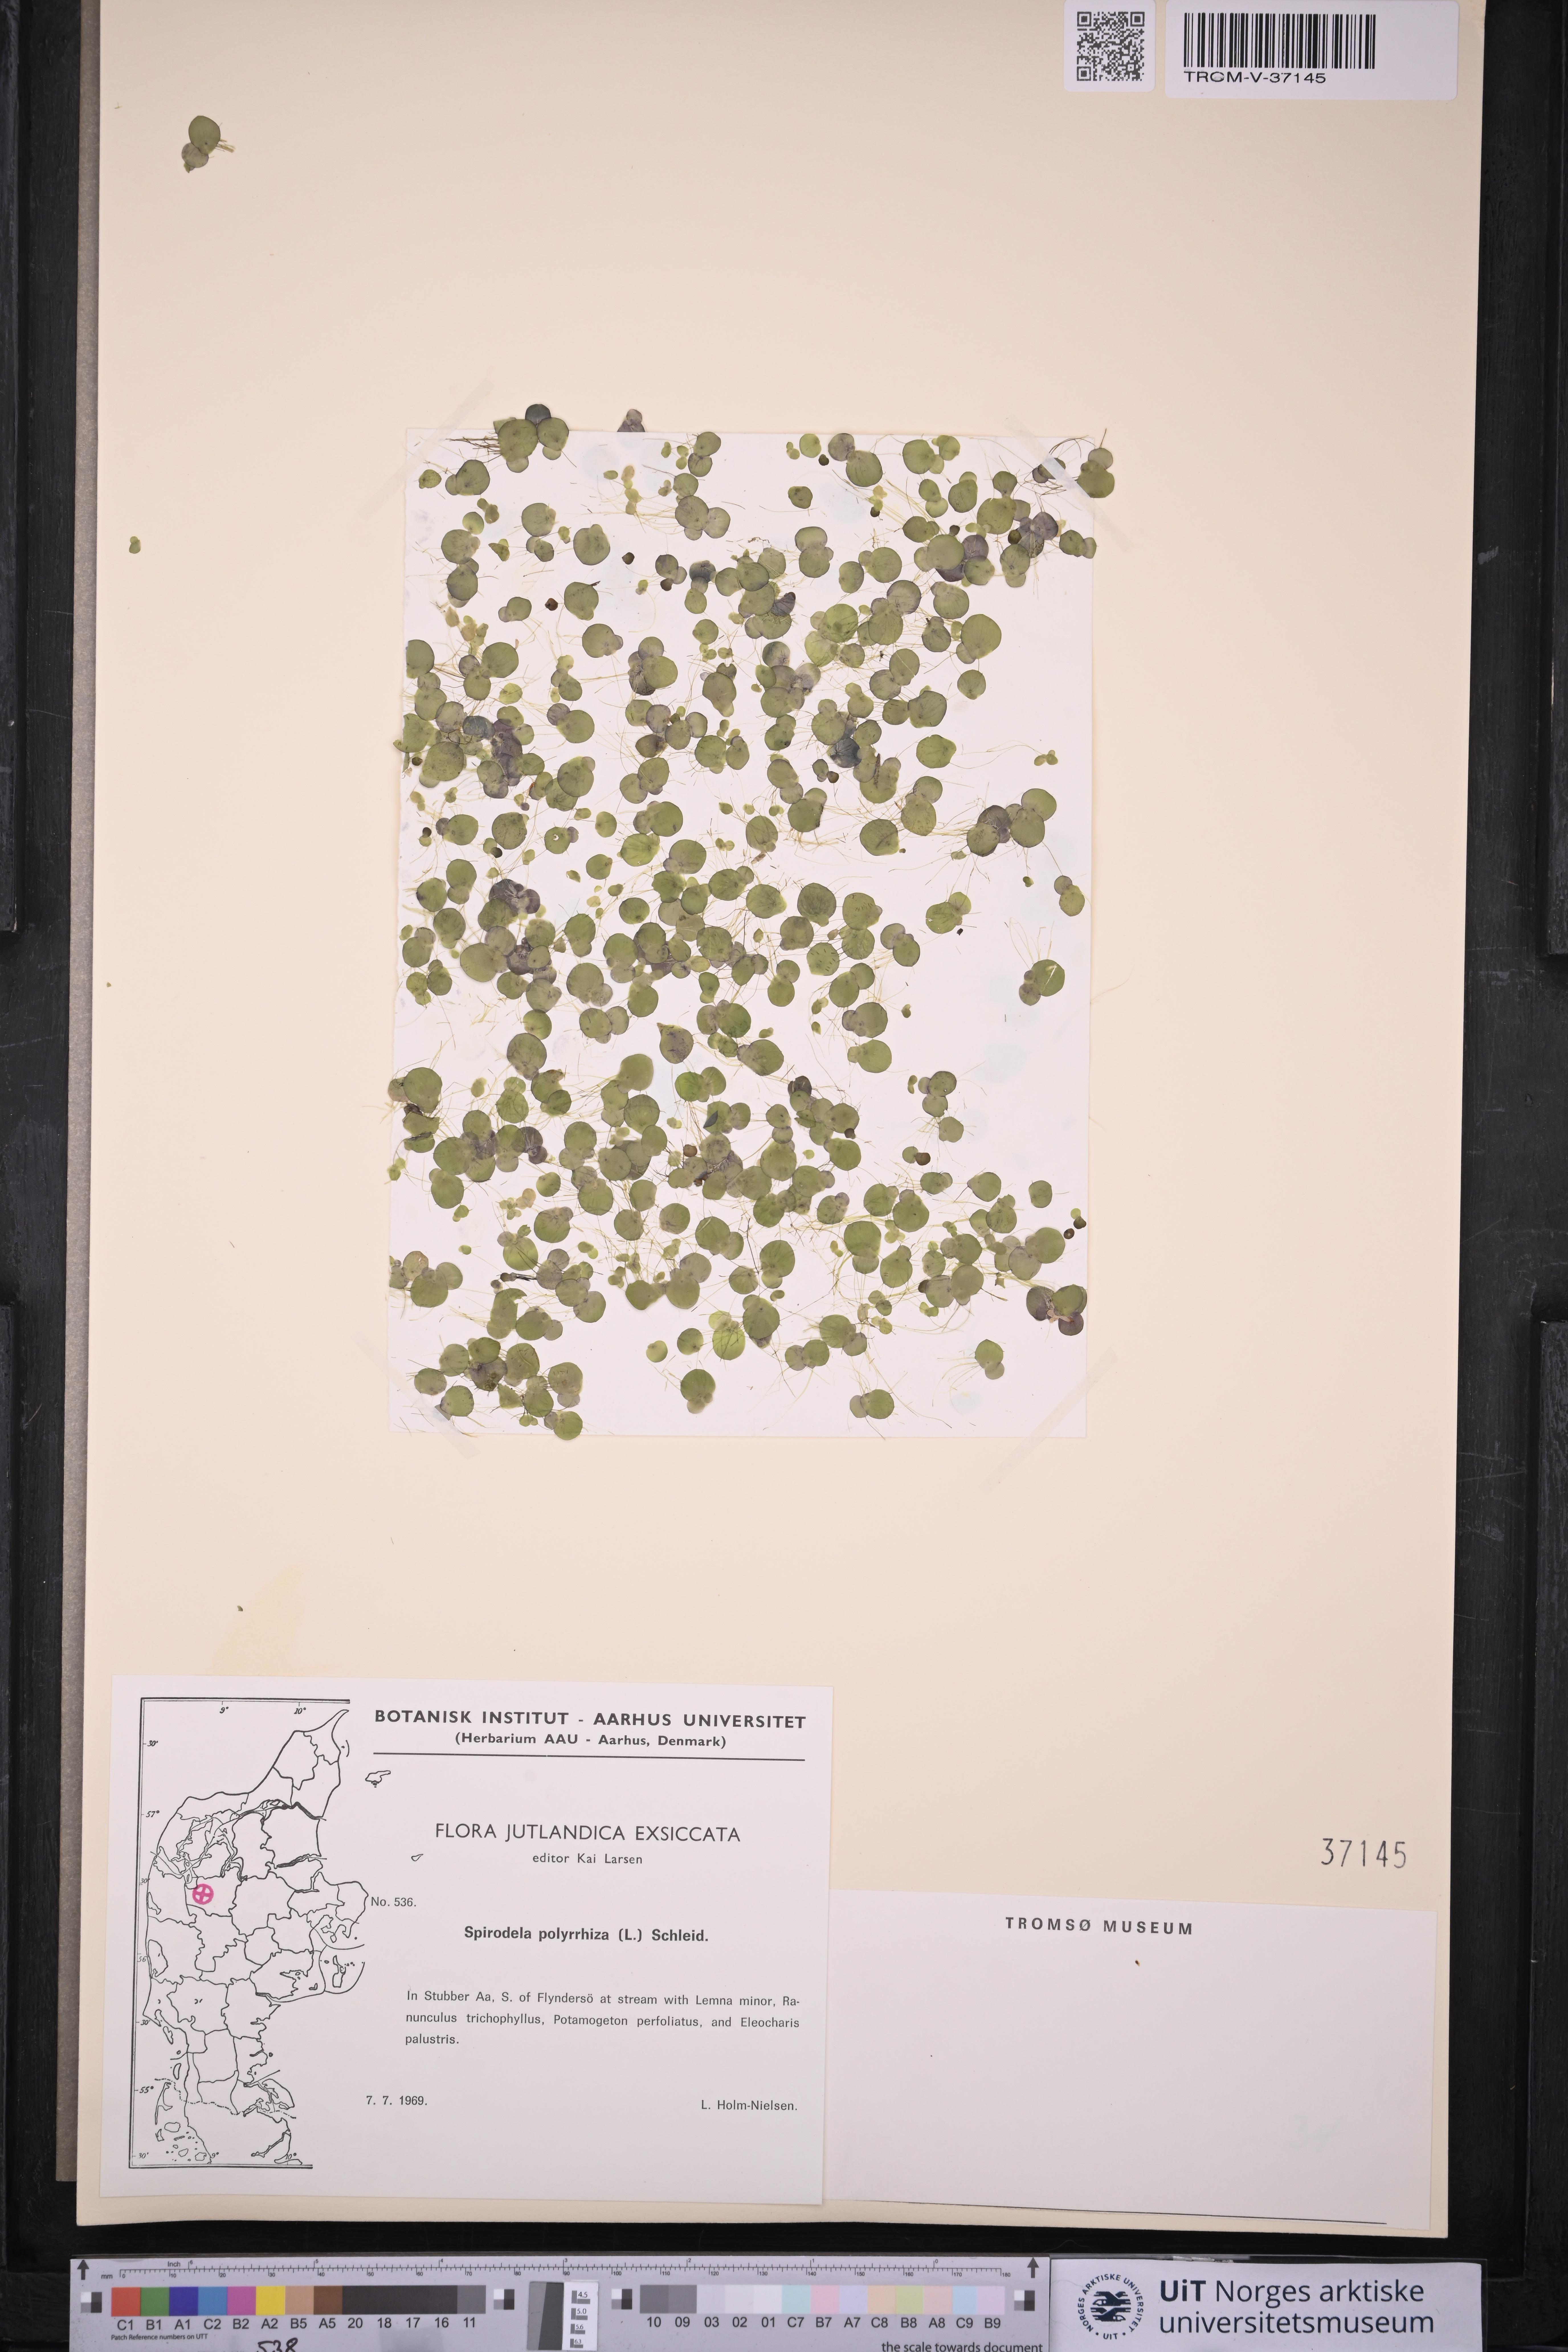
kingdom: Plantae
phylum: Tracheophyta
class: Liliopsida
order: Alismatales
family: Araceae
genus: Spirodela
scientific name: Spirodela polyrhiza
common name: Great duckweed
